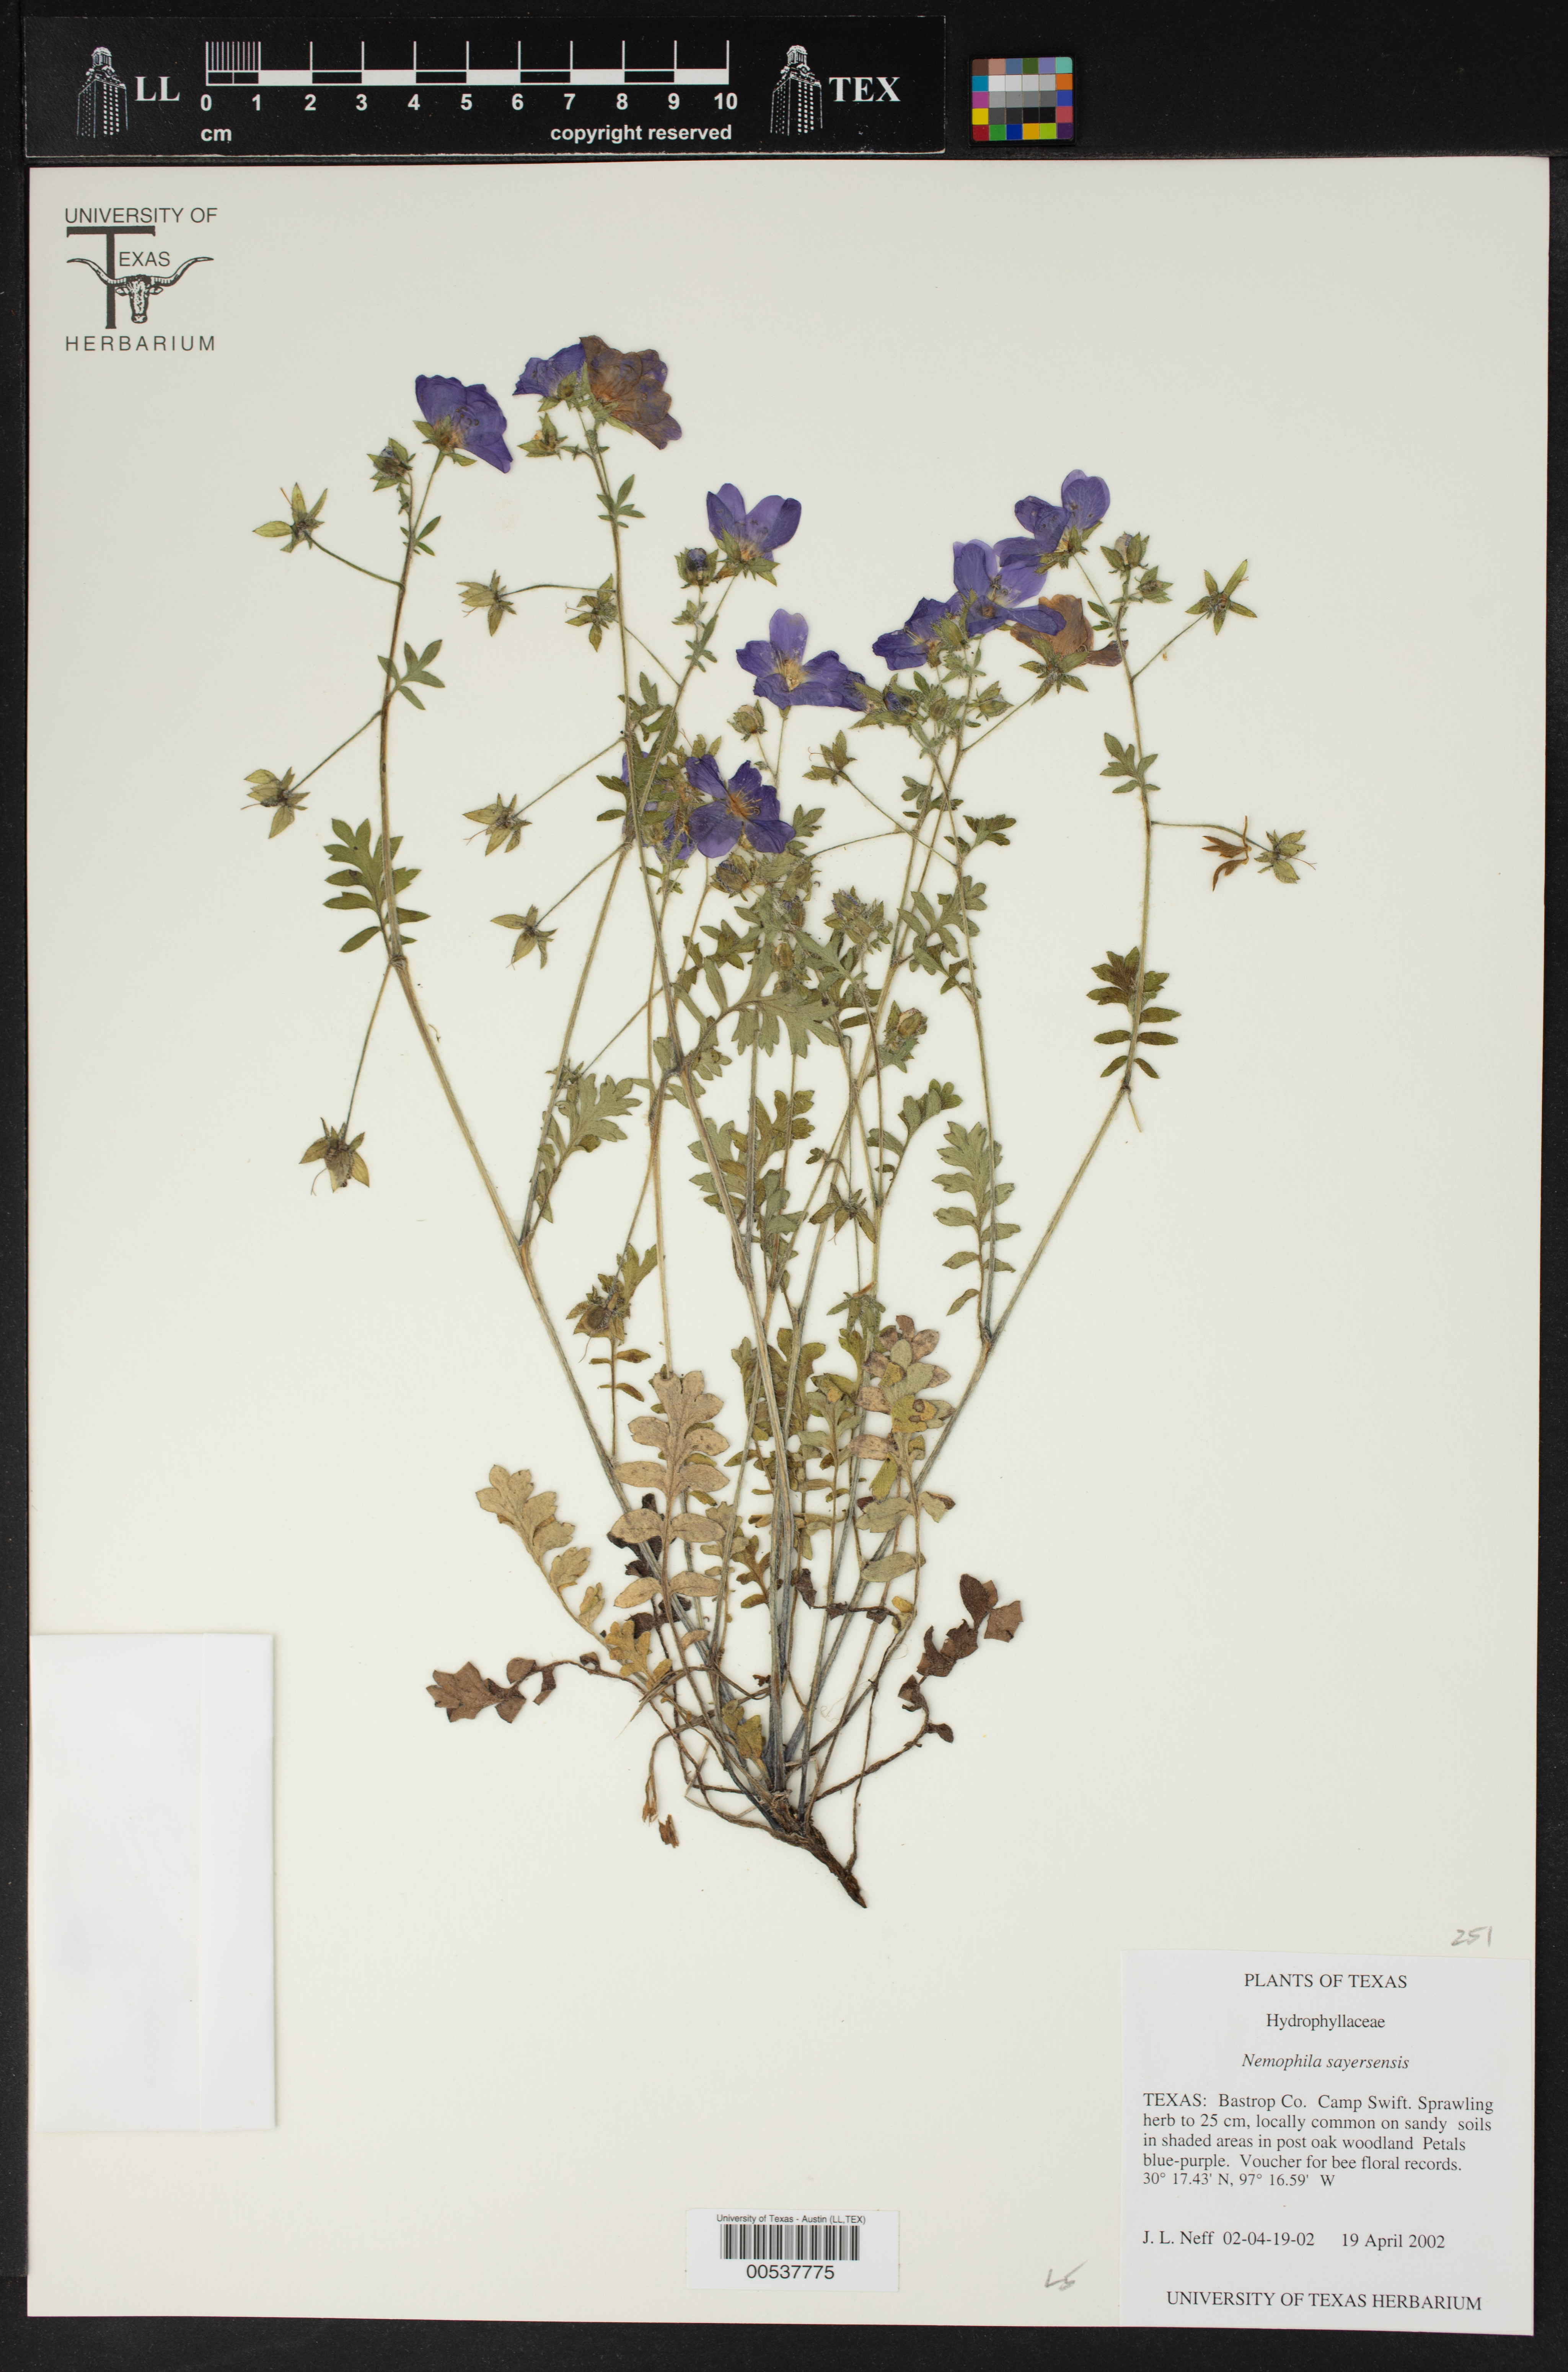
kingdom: Plantae
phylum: Tracheophyta
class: Magnoliopsida
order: Boraginales
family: Hydrophyllaceae
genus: Nemophila
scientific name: Nemophila sayersensis
